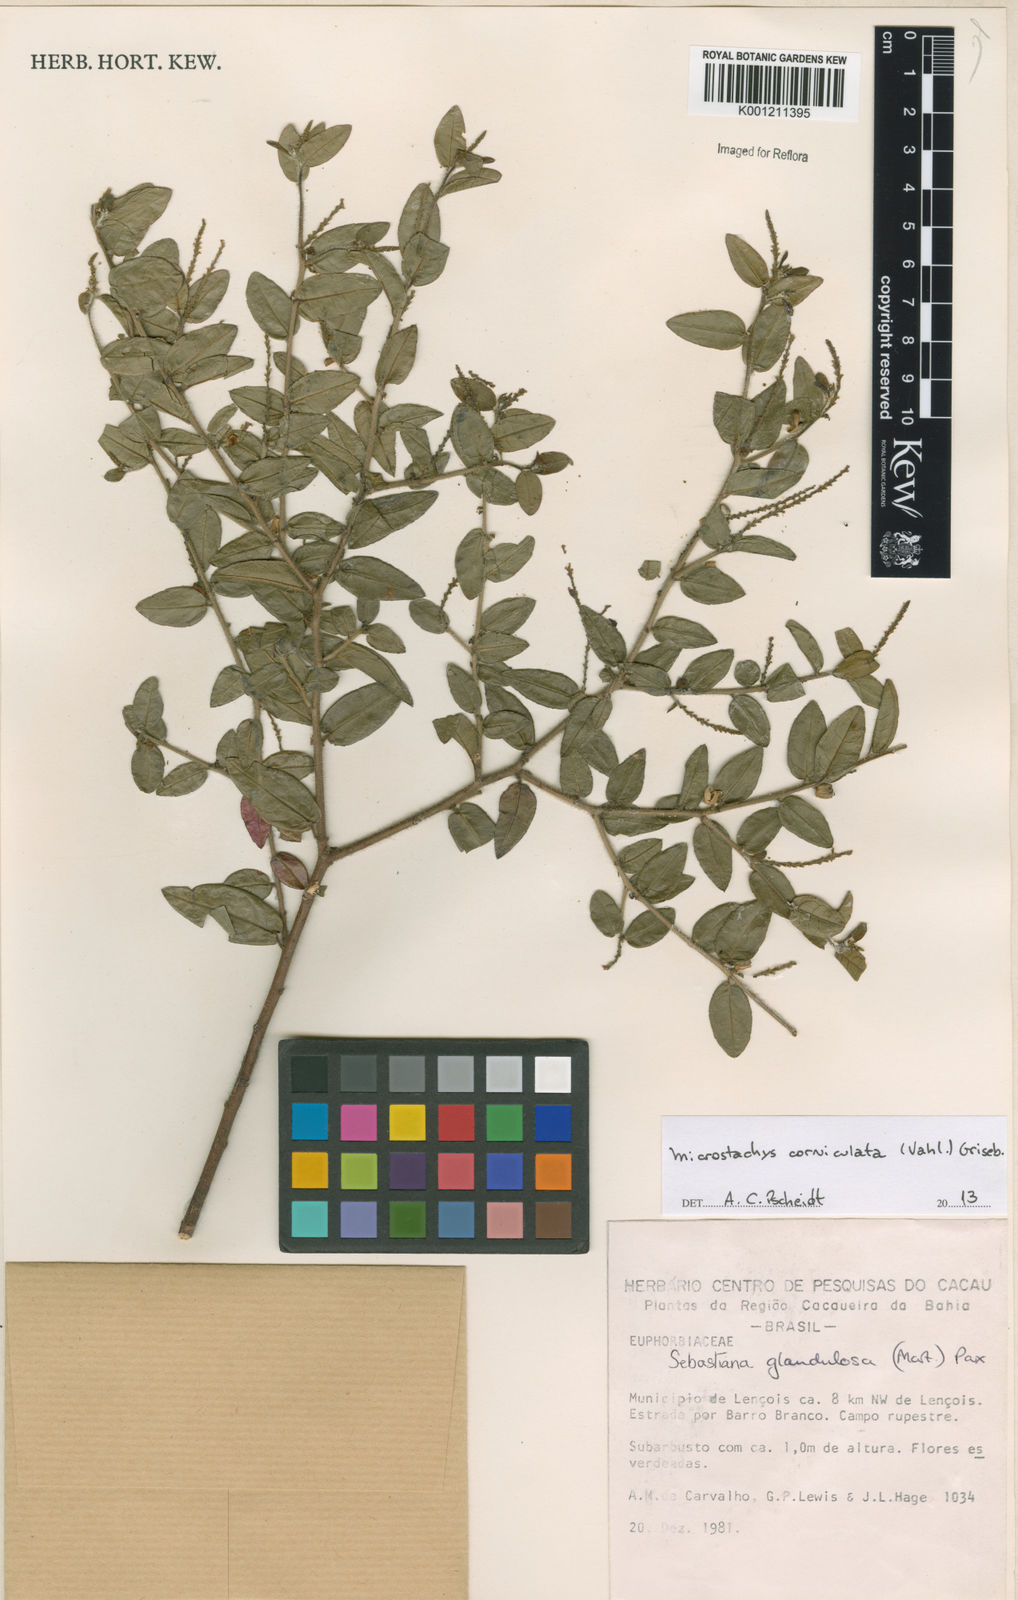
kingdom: Plantae
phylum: Tracheophyta
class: Magnoliopsida
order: Malpighiales
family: Euphorbiaceae
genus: Microstachys
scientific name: Microstachys corniculata
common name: Hato tejas
